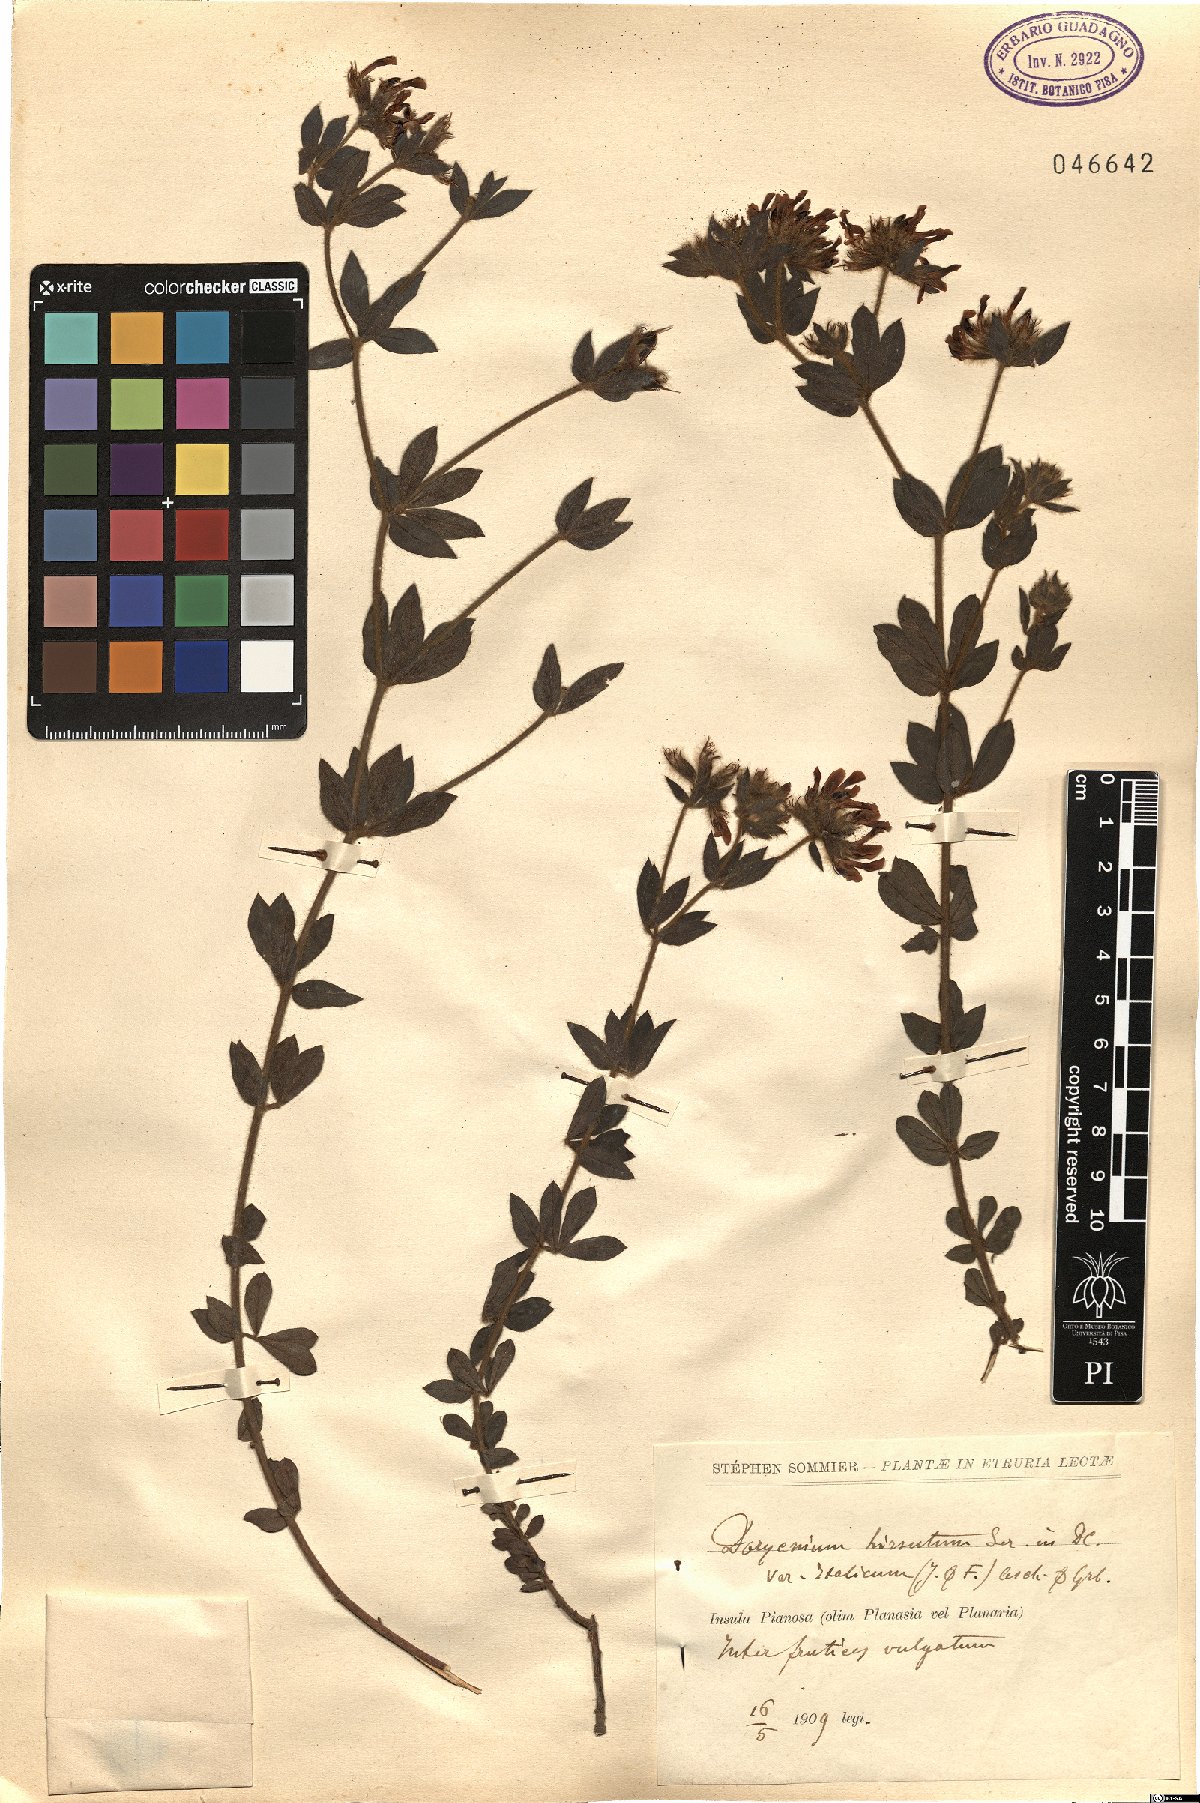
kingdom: Plantae
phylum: Tracheophyta
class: Magnoliopsida
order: Fabales
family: Fabaceae
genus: Lotus
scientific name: Lotus hirsutus
